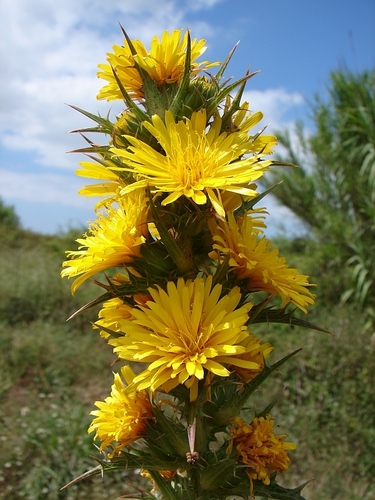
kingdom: Plantae
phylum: Tracheophyta
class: Magnoliopsida
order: Asterales
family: Asteraceae
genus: Scolymus
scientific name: Scolymus hispanicus
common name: Golden thistle
